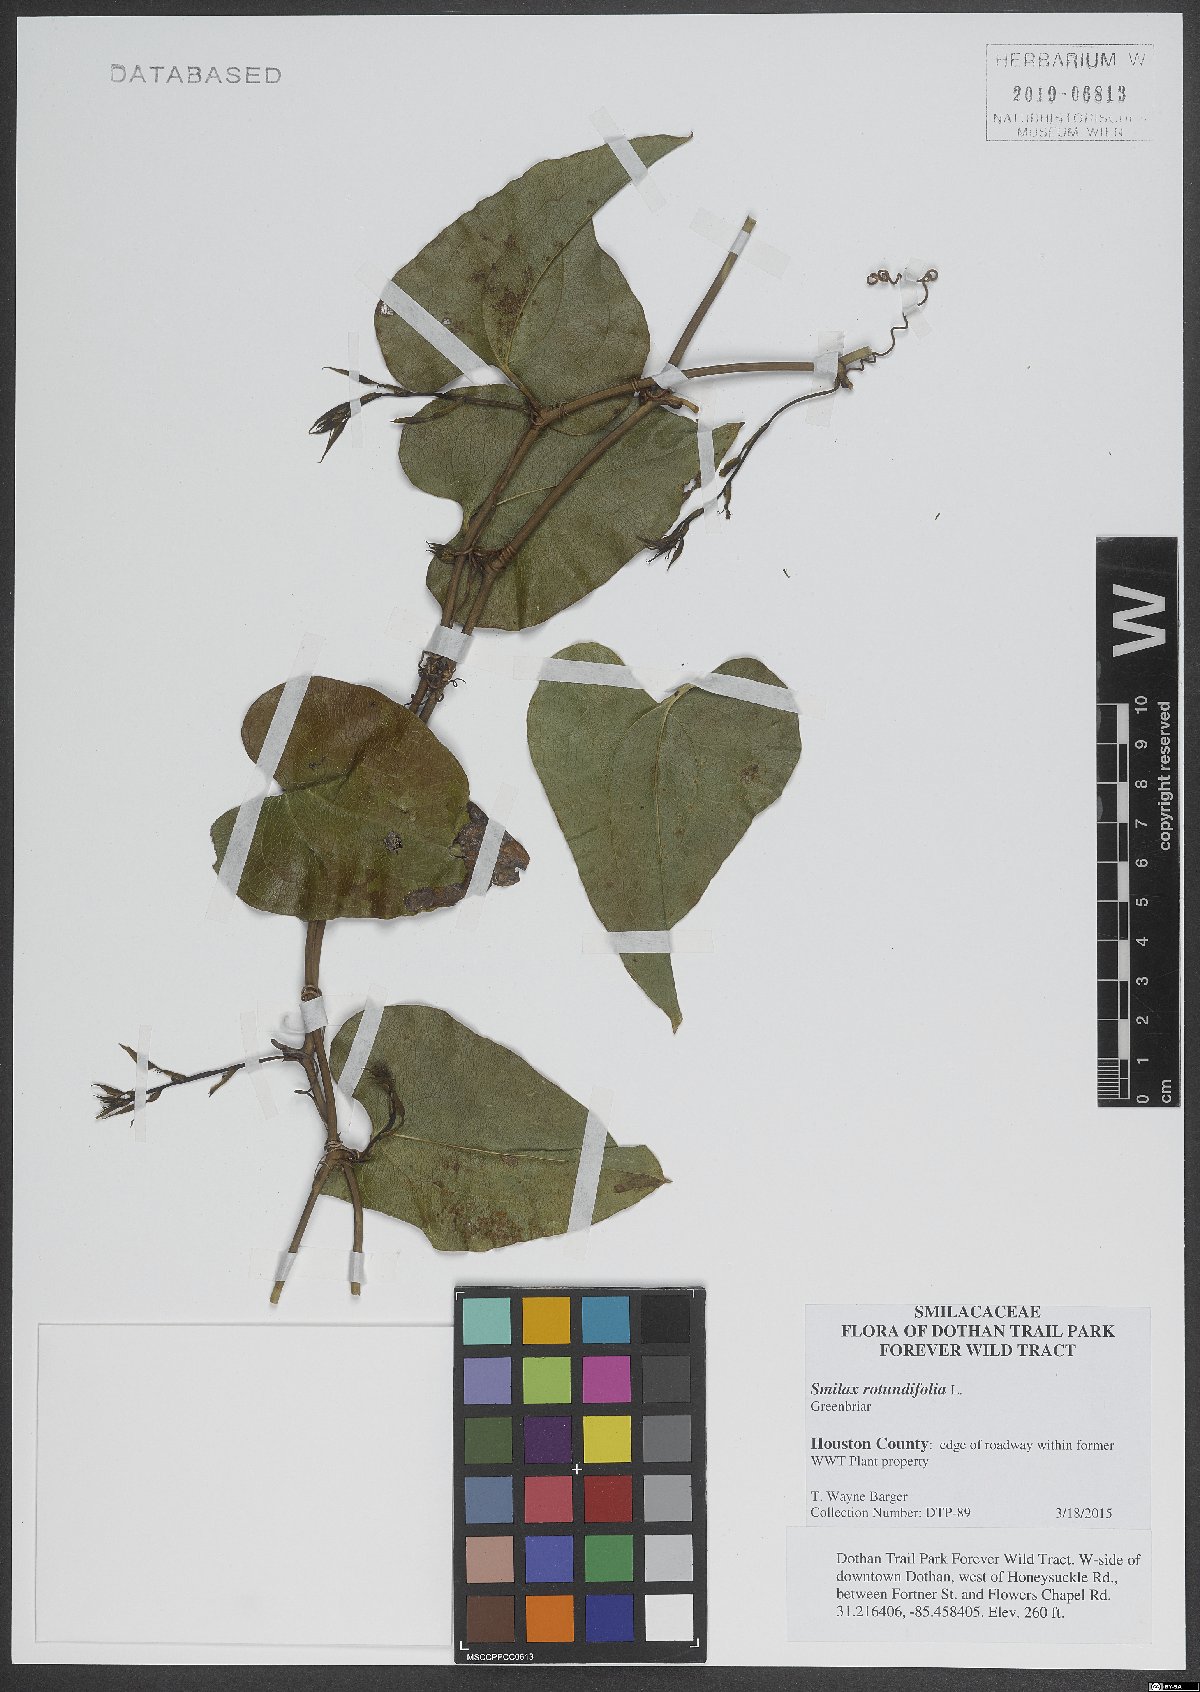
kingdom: Plantae
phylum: Tracheophyta
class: Liliopsida
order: Liliales
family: Smilacaceae
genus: Smilax
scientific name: Smilax rotundifolia
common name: Bullbriar
